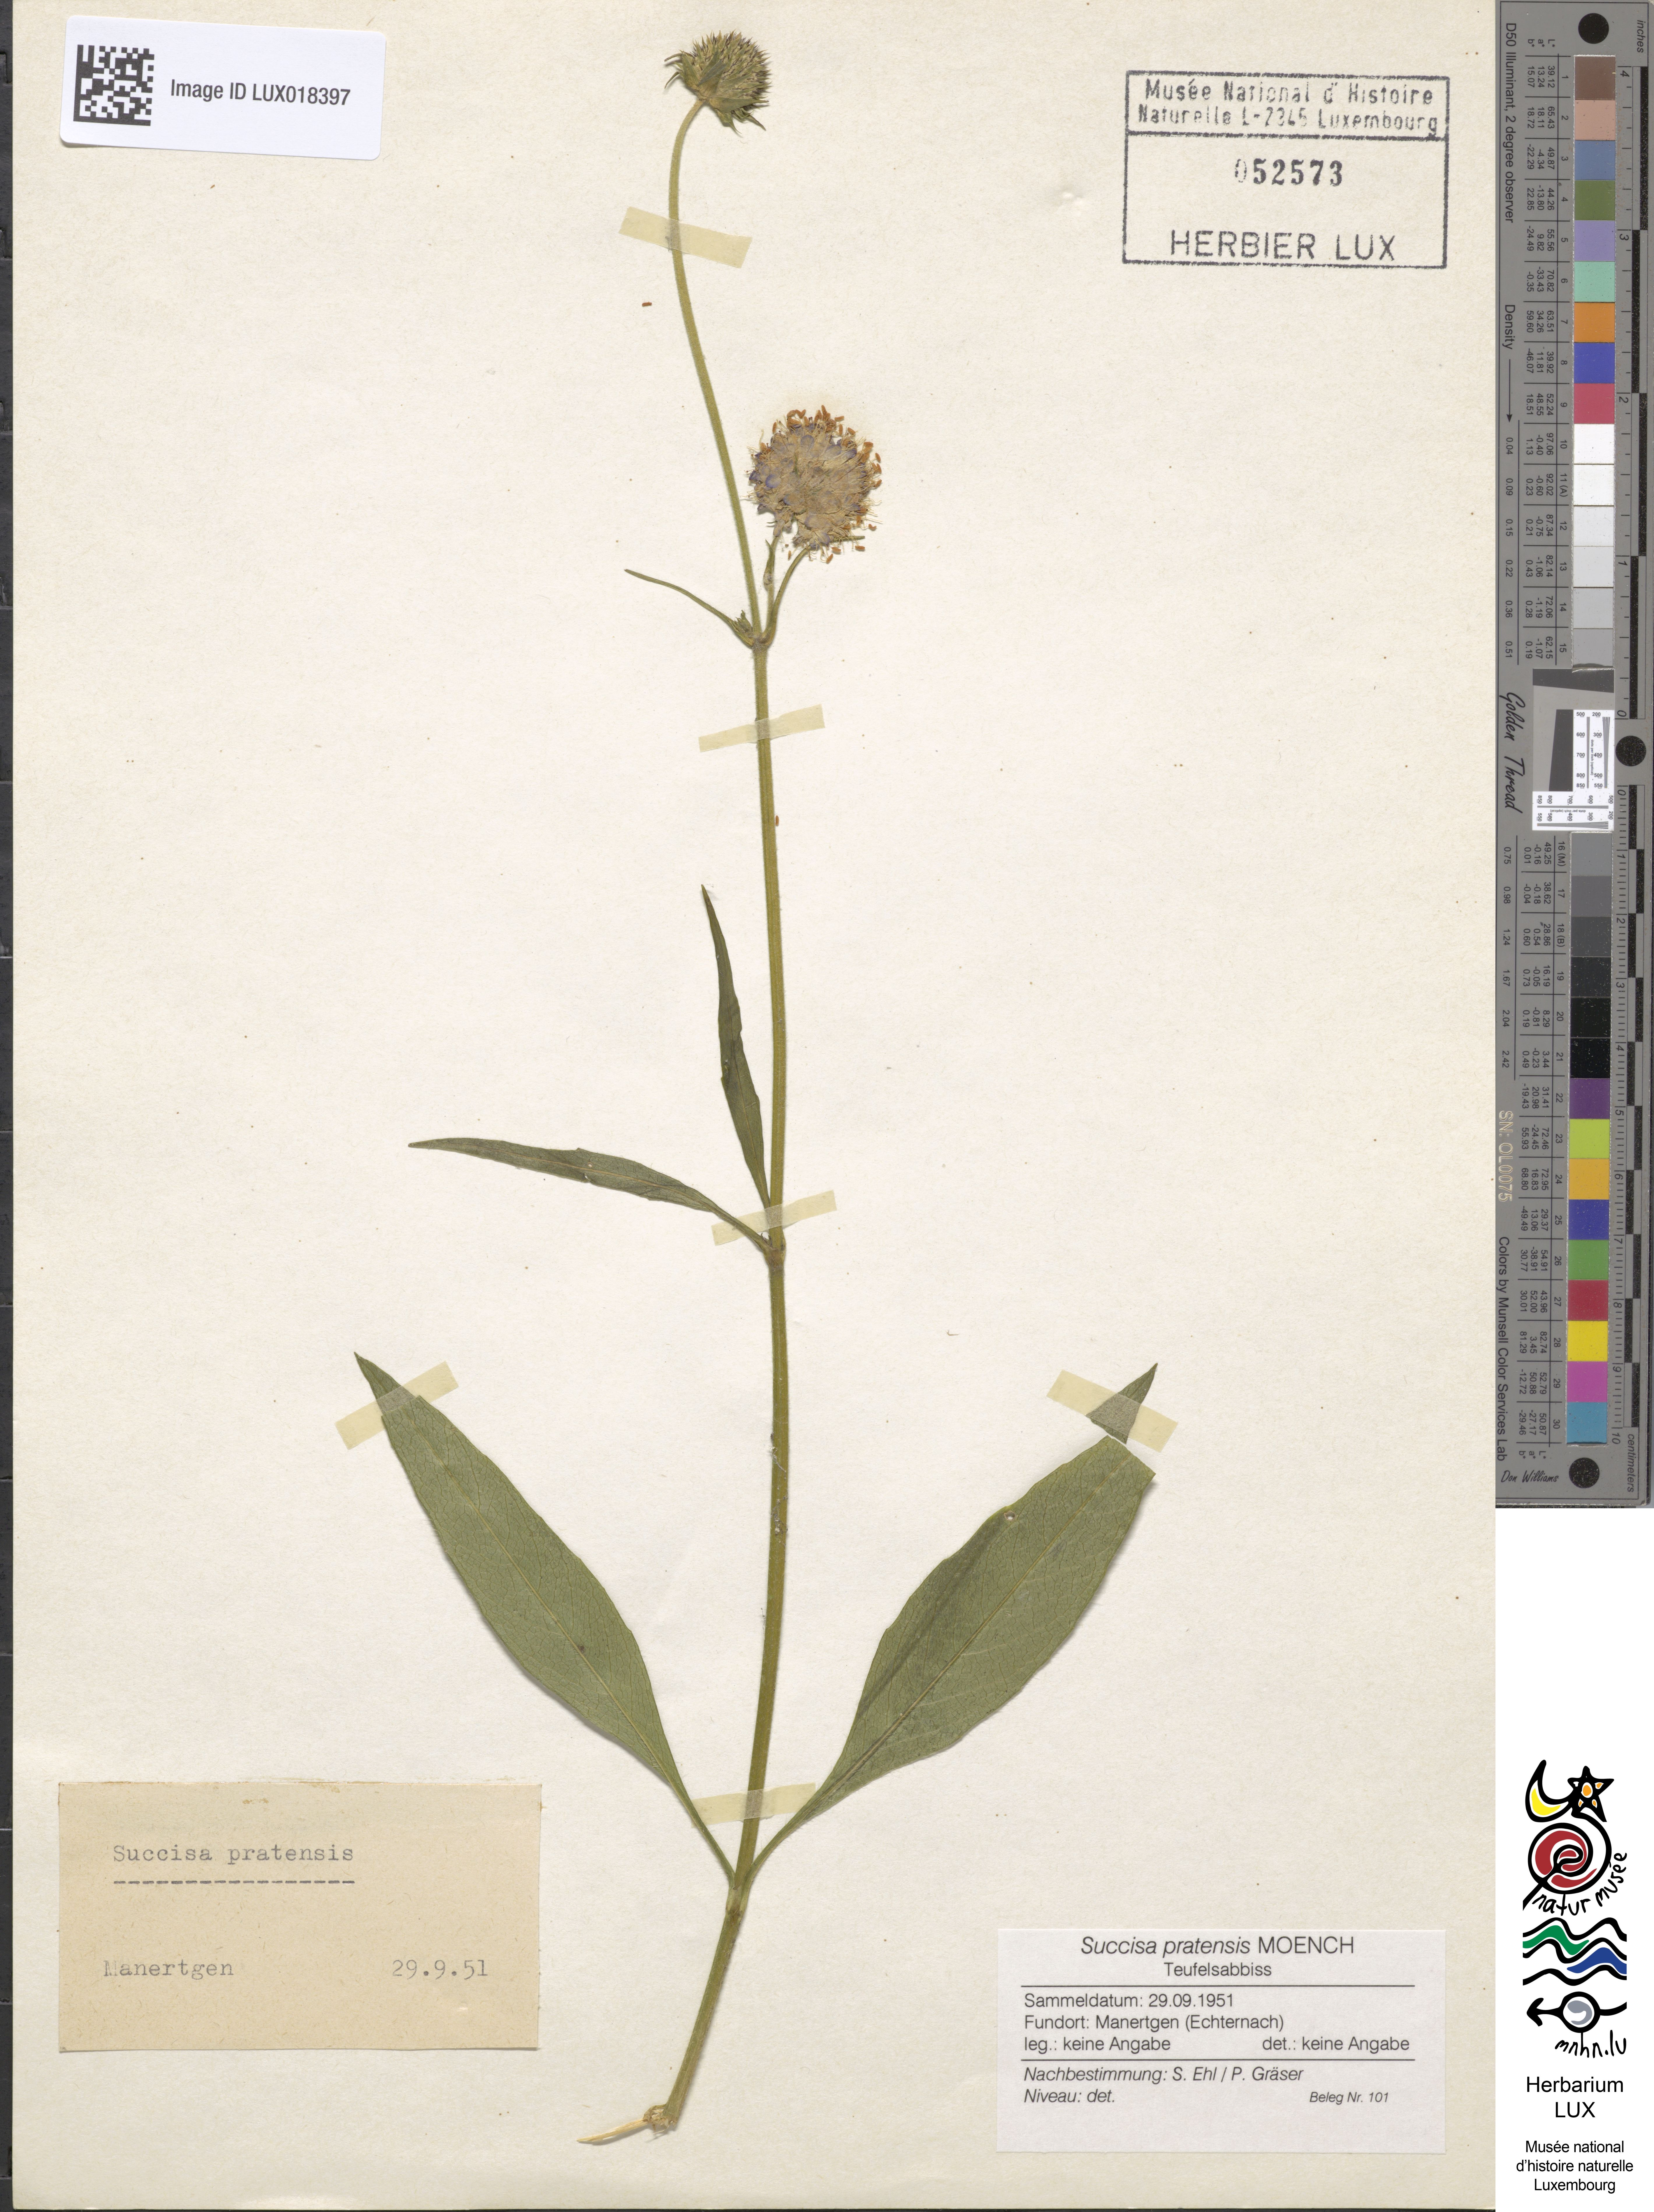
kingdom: Plantae
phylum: Tracheophyta
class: Magnoliopsida
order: Dipsacales
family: Caprifoliaceae
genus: Succisa
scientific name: Succisa pratensis
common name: Devil's-bit
